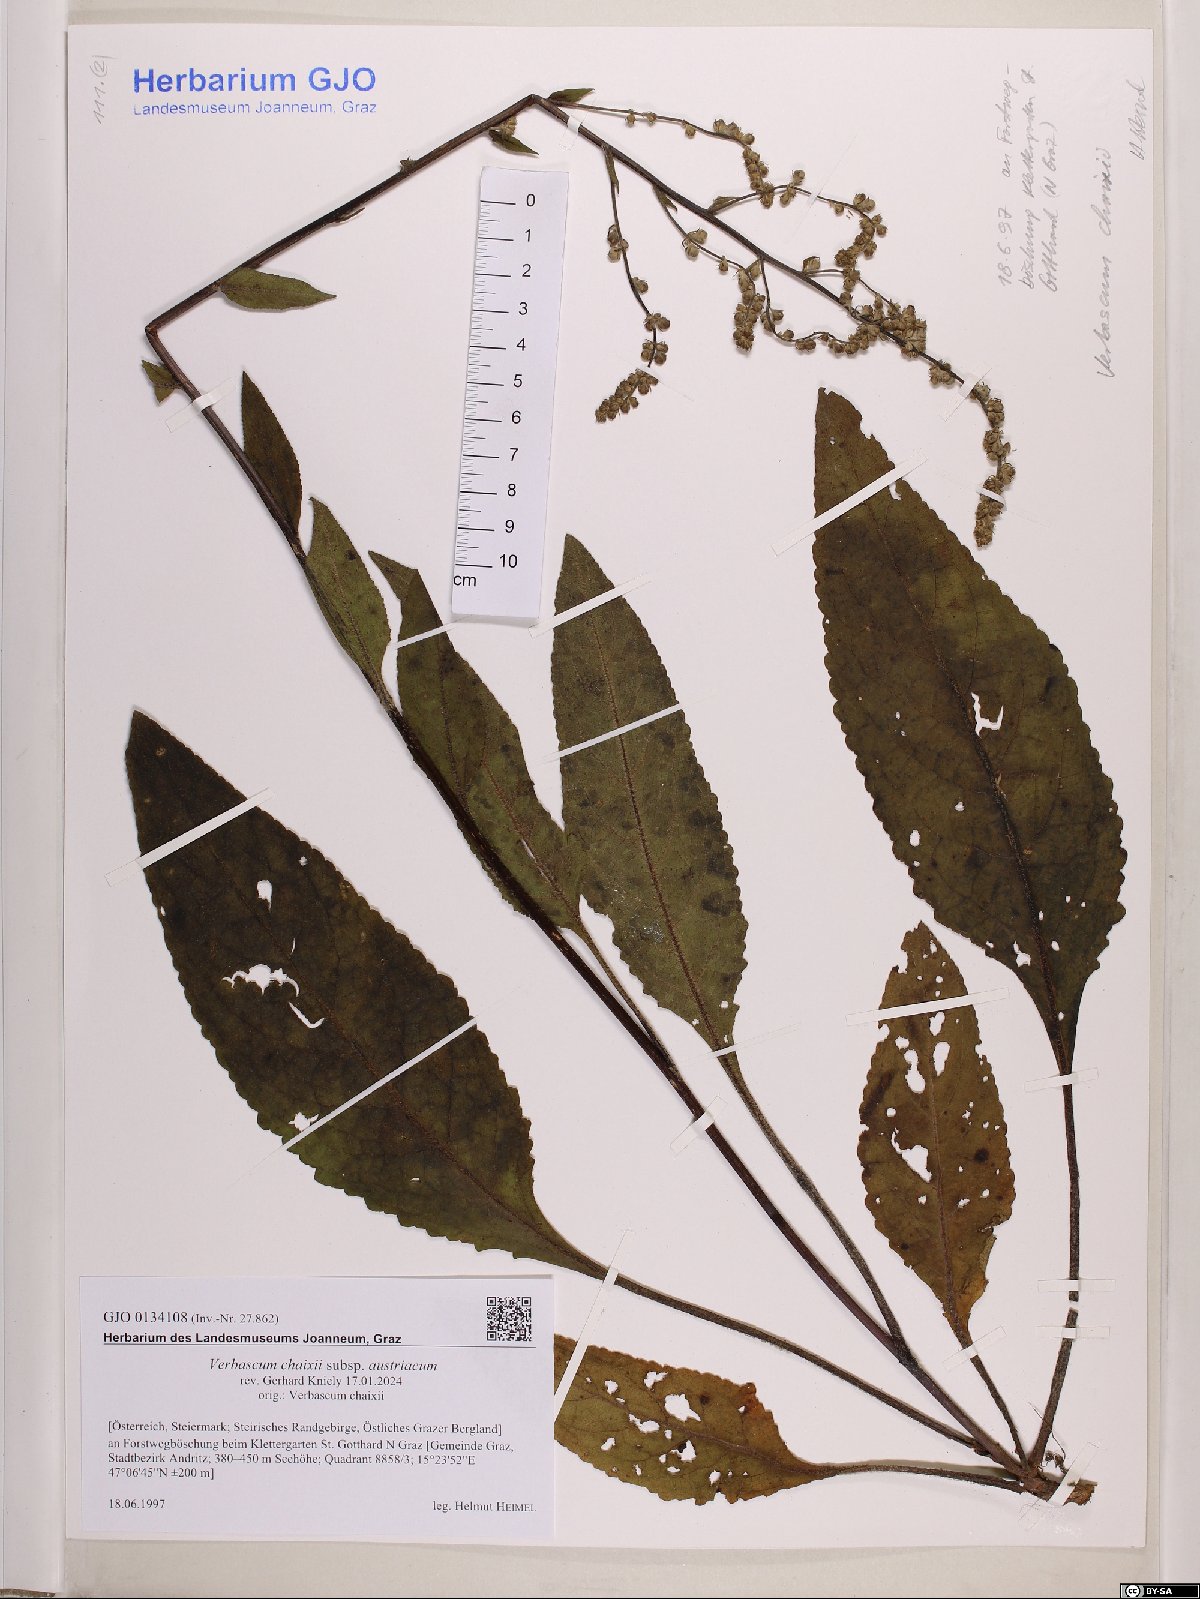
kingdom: Plantae
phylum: Tracheophyta
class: Magnoliopsida
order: Lamiales
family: Scrophulariaceae
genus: Verbascum
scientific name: Verbascum chaixii
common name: Nettle-leaved mullein
